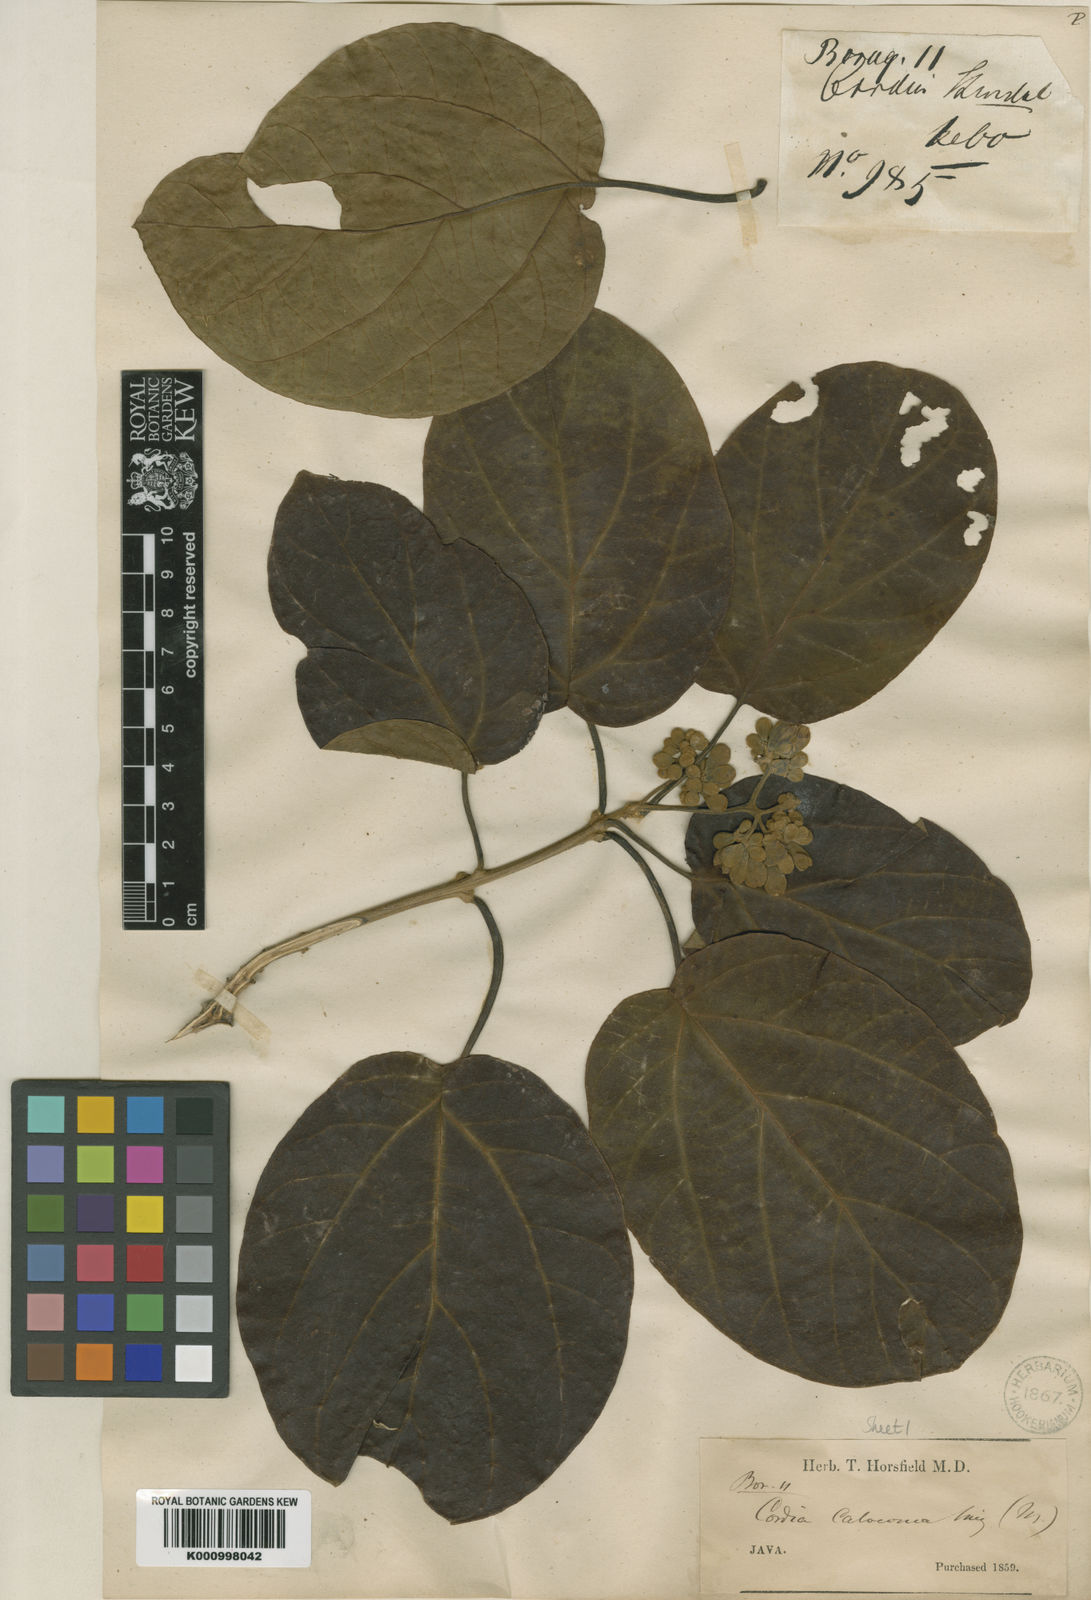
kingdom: Plantae
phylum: Tracheophyta
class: Magnoliopsida
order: Boraginales
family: Cordiaceae
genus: Cordia
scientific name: Cordia bantamensis
